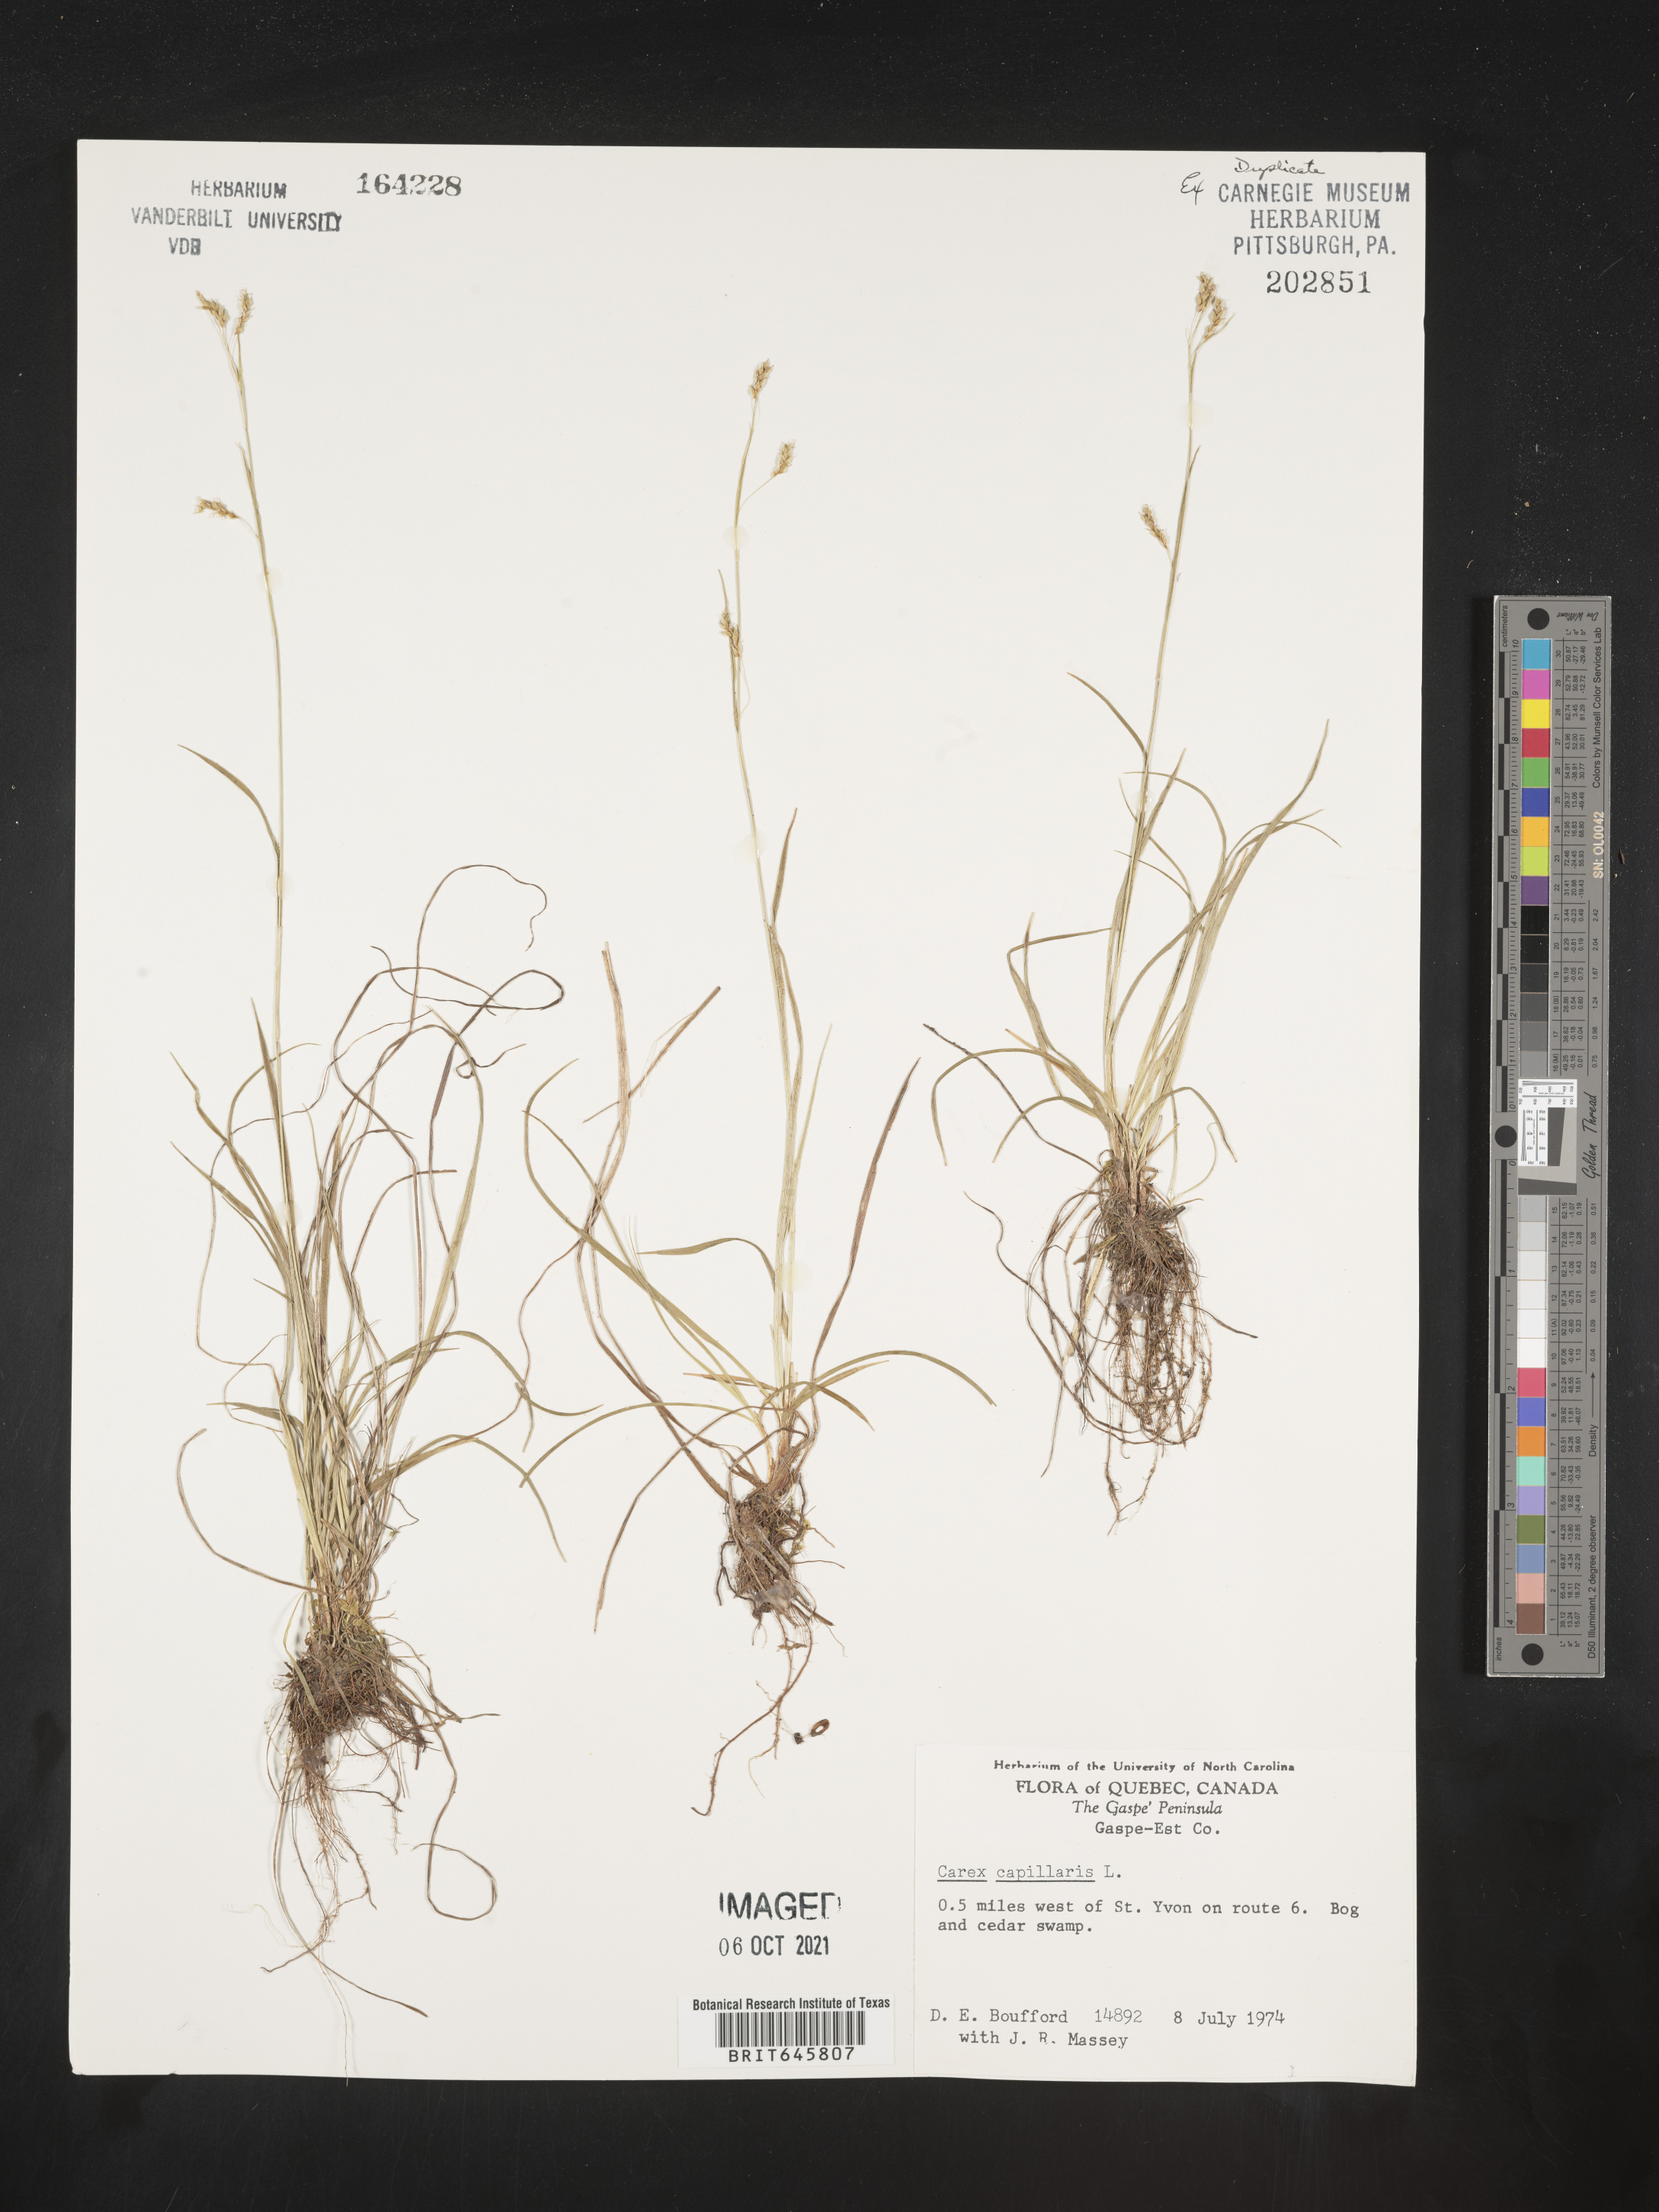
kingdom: Plantae
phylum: Tracheophyta
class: Liliopsida
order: Poales
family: Cyperaceae
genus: Carex
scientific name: Carex capillaris
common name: Hair sedge
